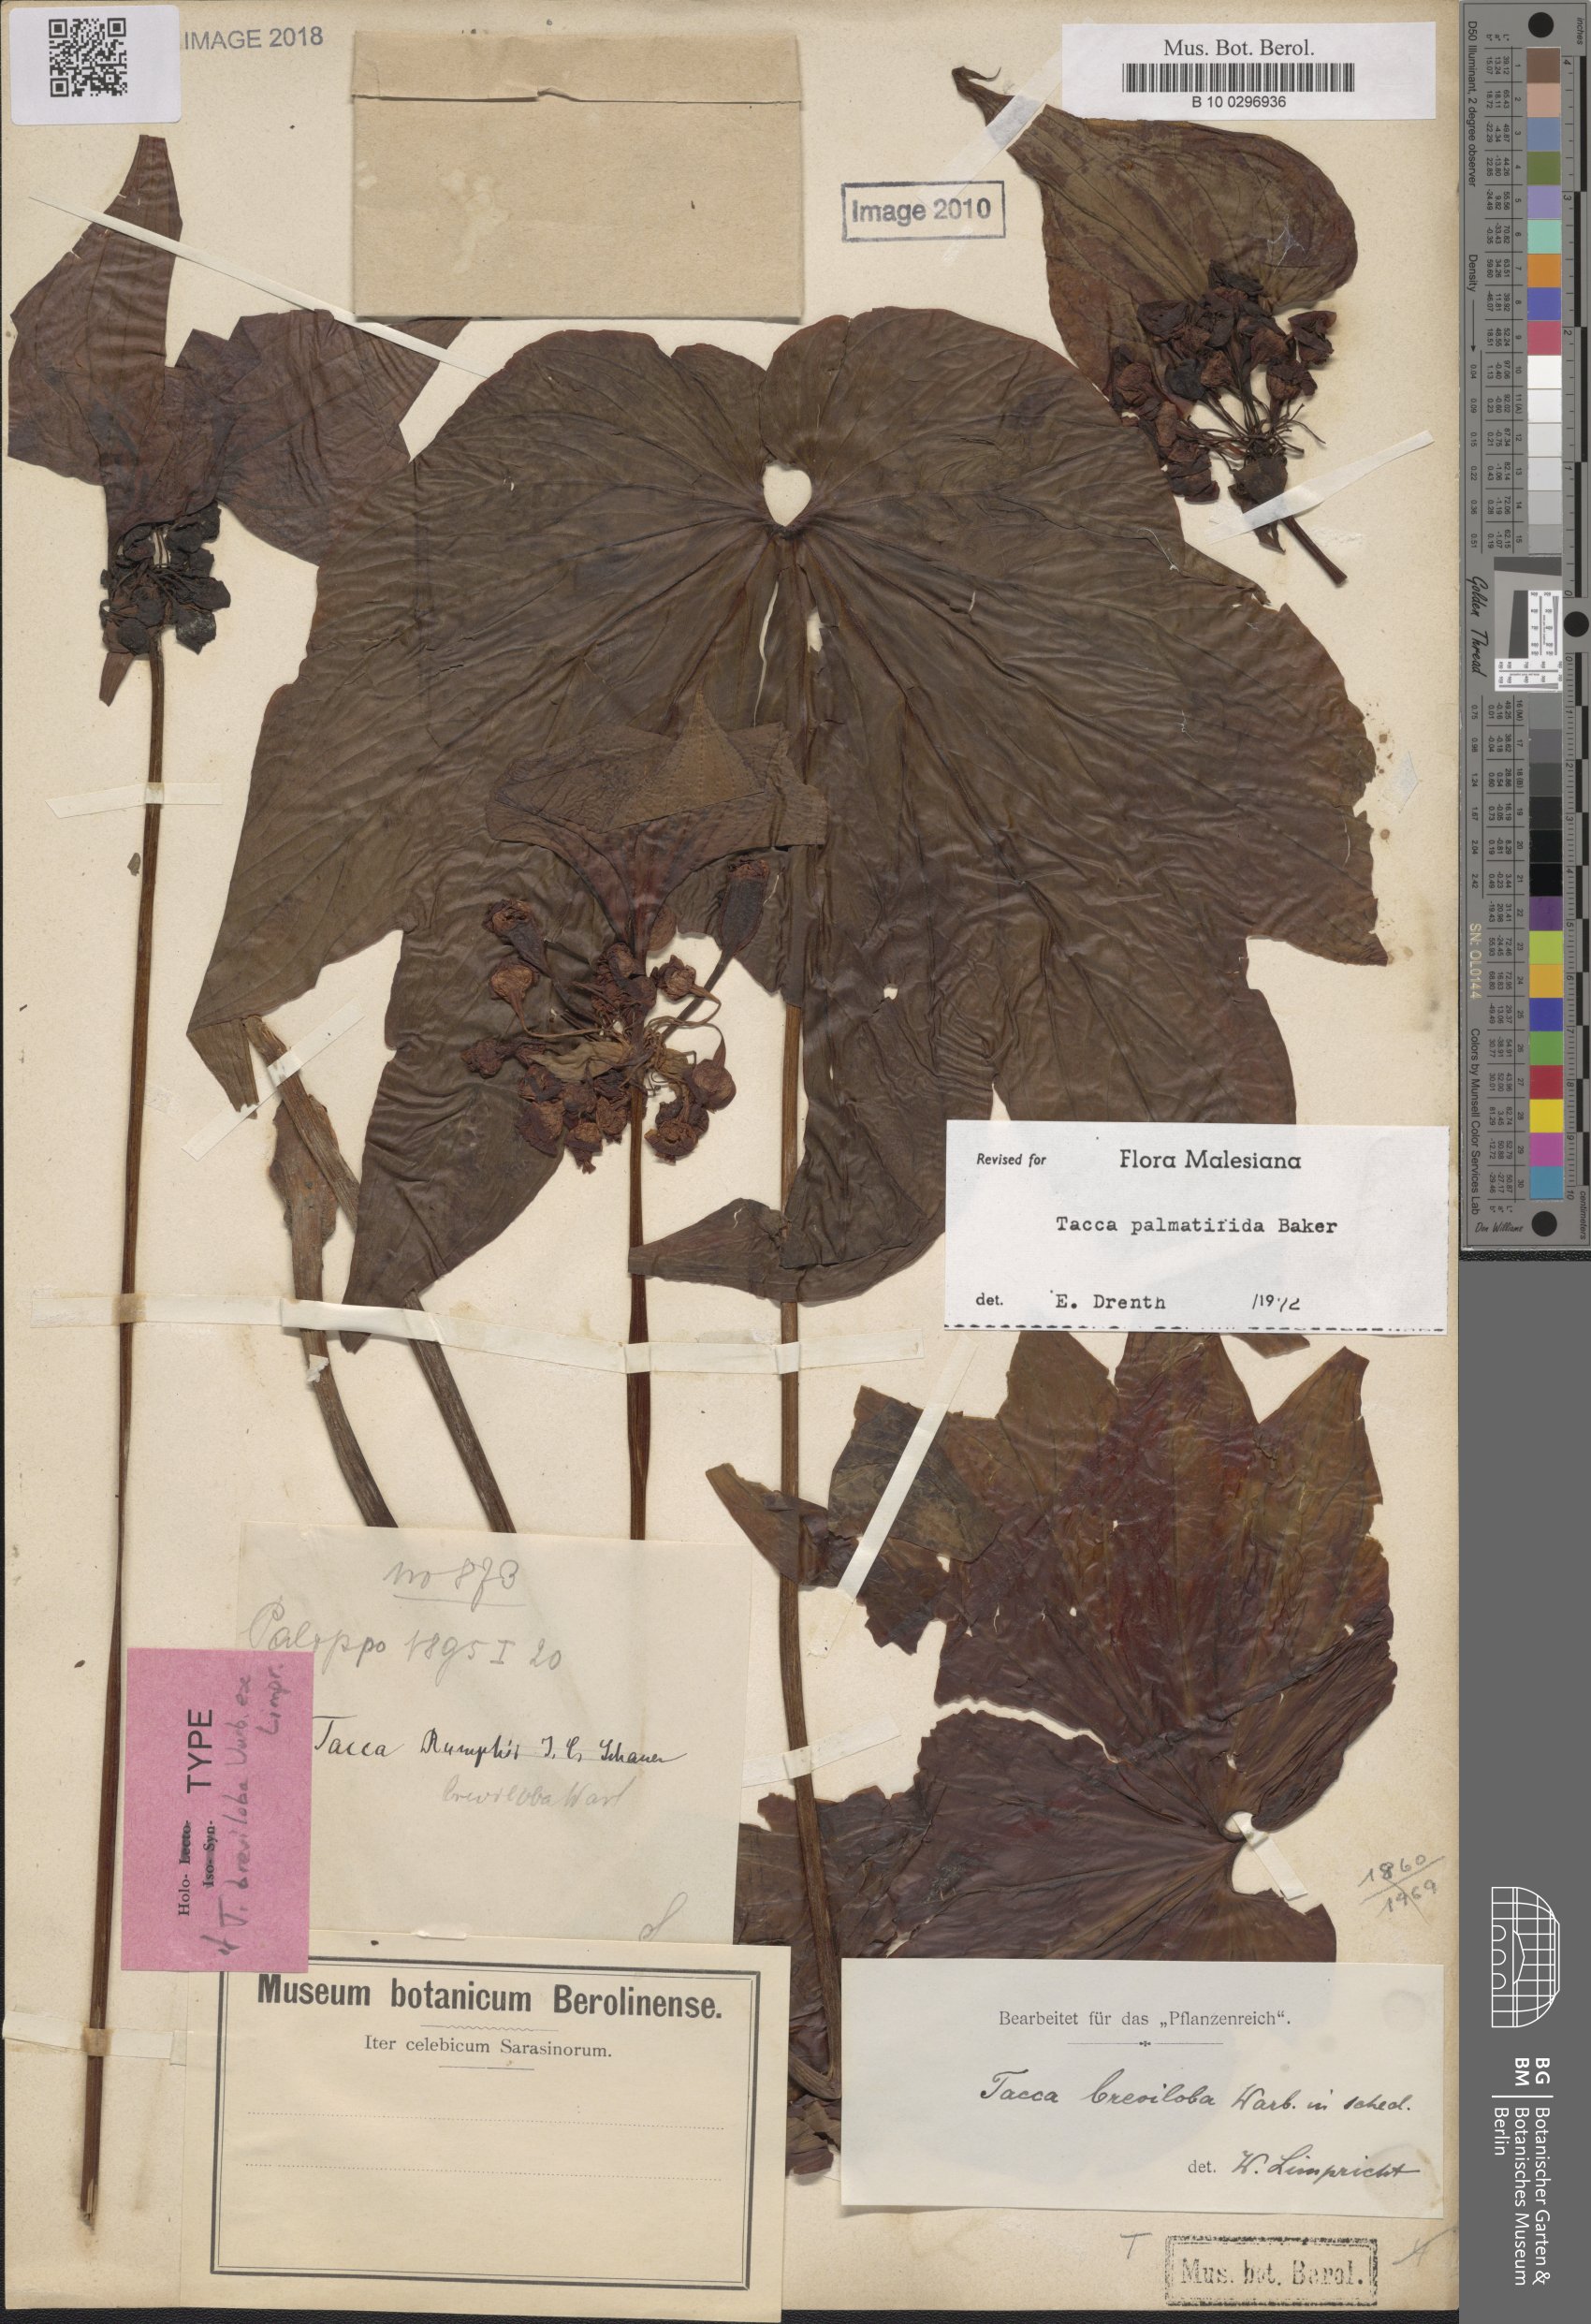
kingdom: Plantae
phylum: Tracheophyta
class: Liliopsida
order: Dioscoreales
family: Dioscoreaceae
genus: Tacca
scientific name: Tacca palmatifida
